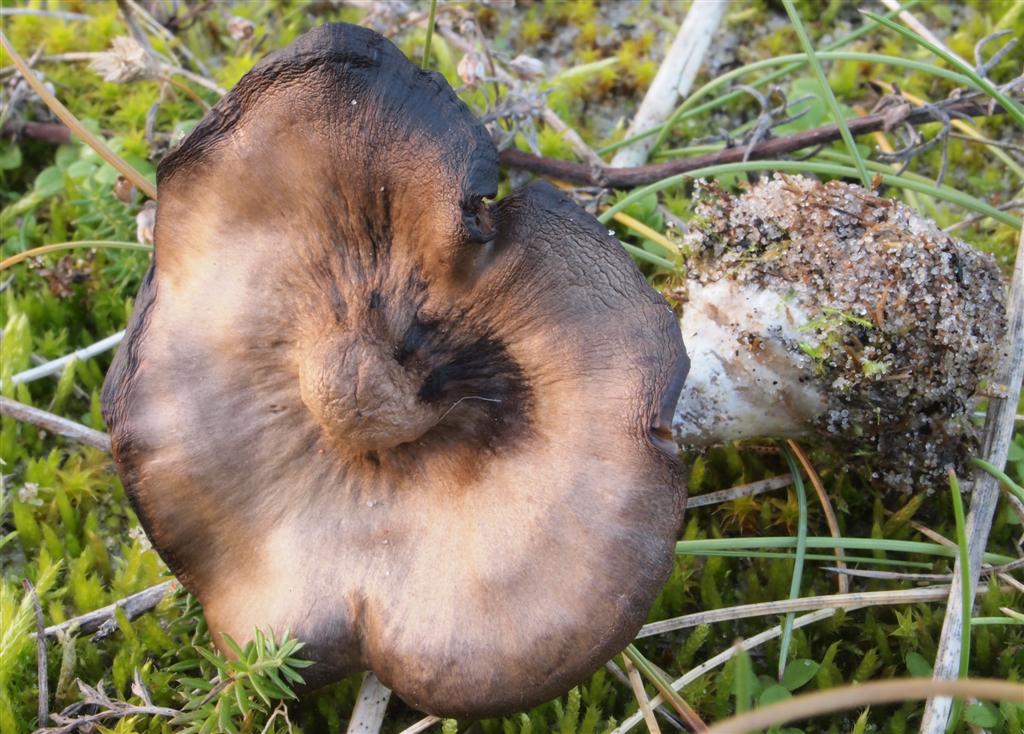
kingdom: Fungi
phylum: Basidiomycota
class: Agaricomycetes
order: Agaricales
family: Tricholomataceae
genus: Lulesia
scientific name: Lulesia
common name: sortnende troldhat
